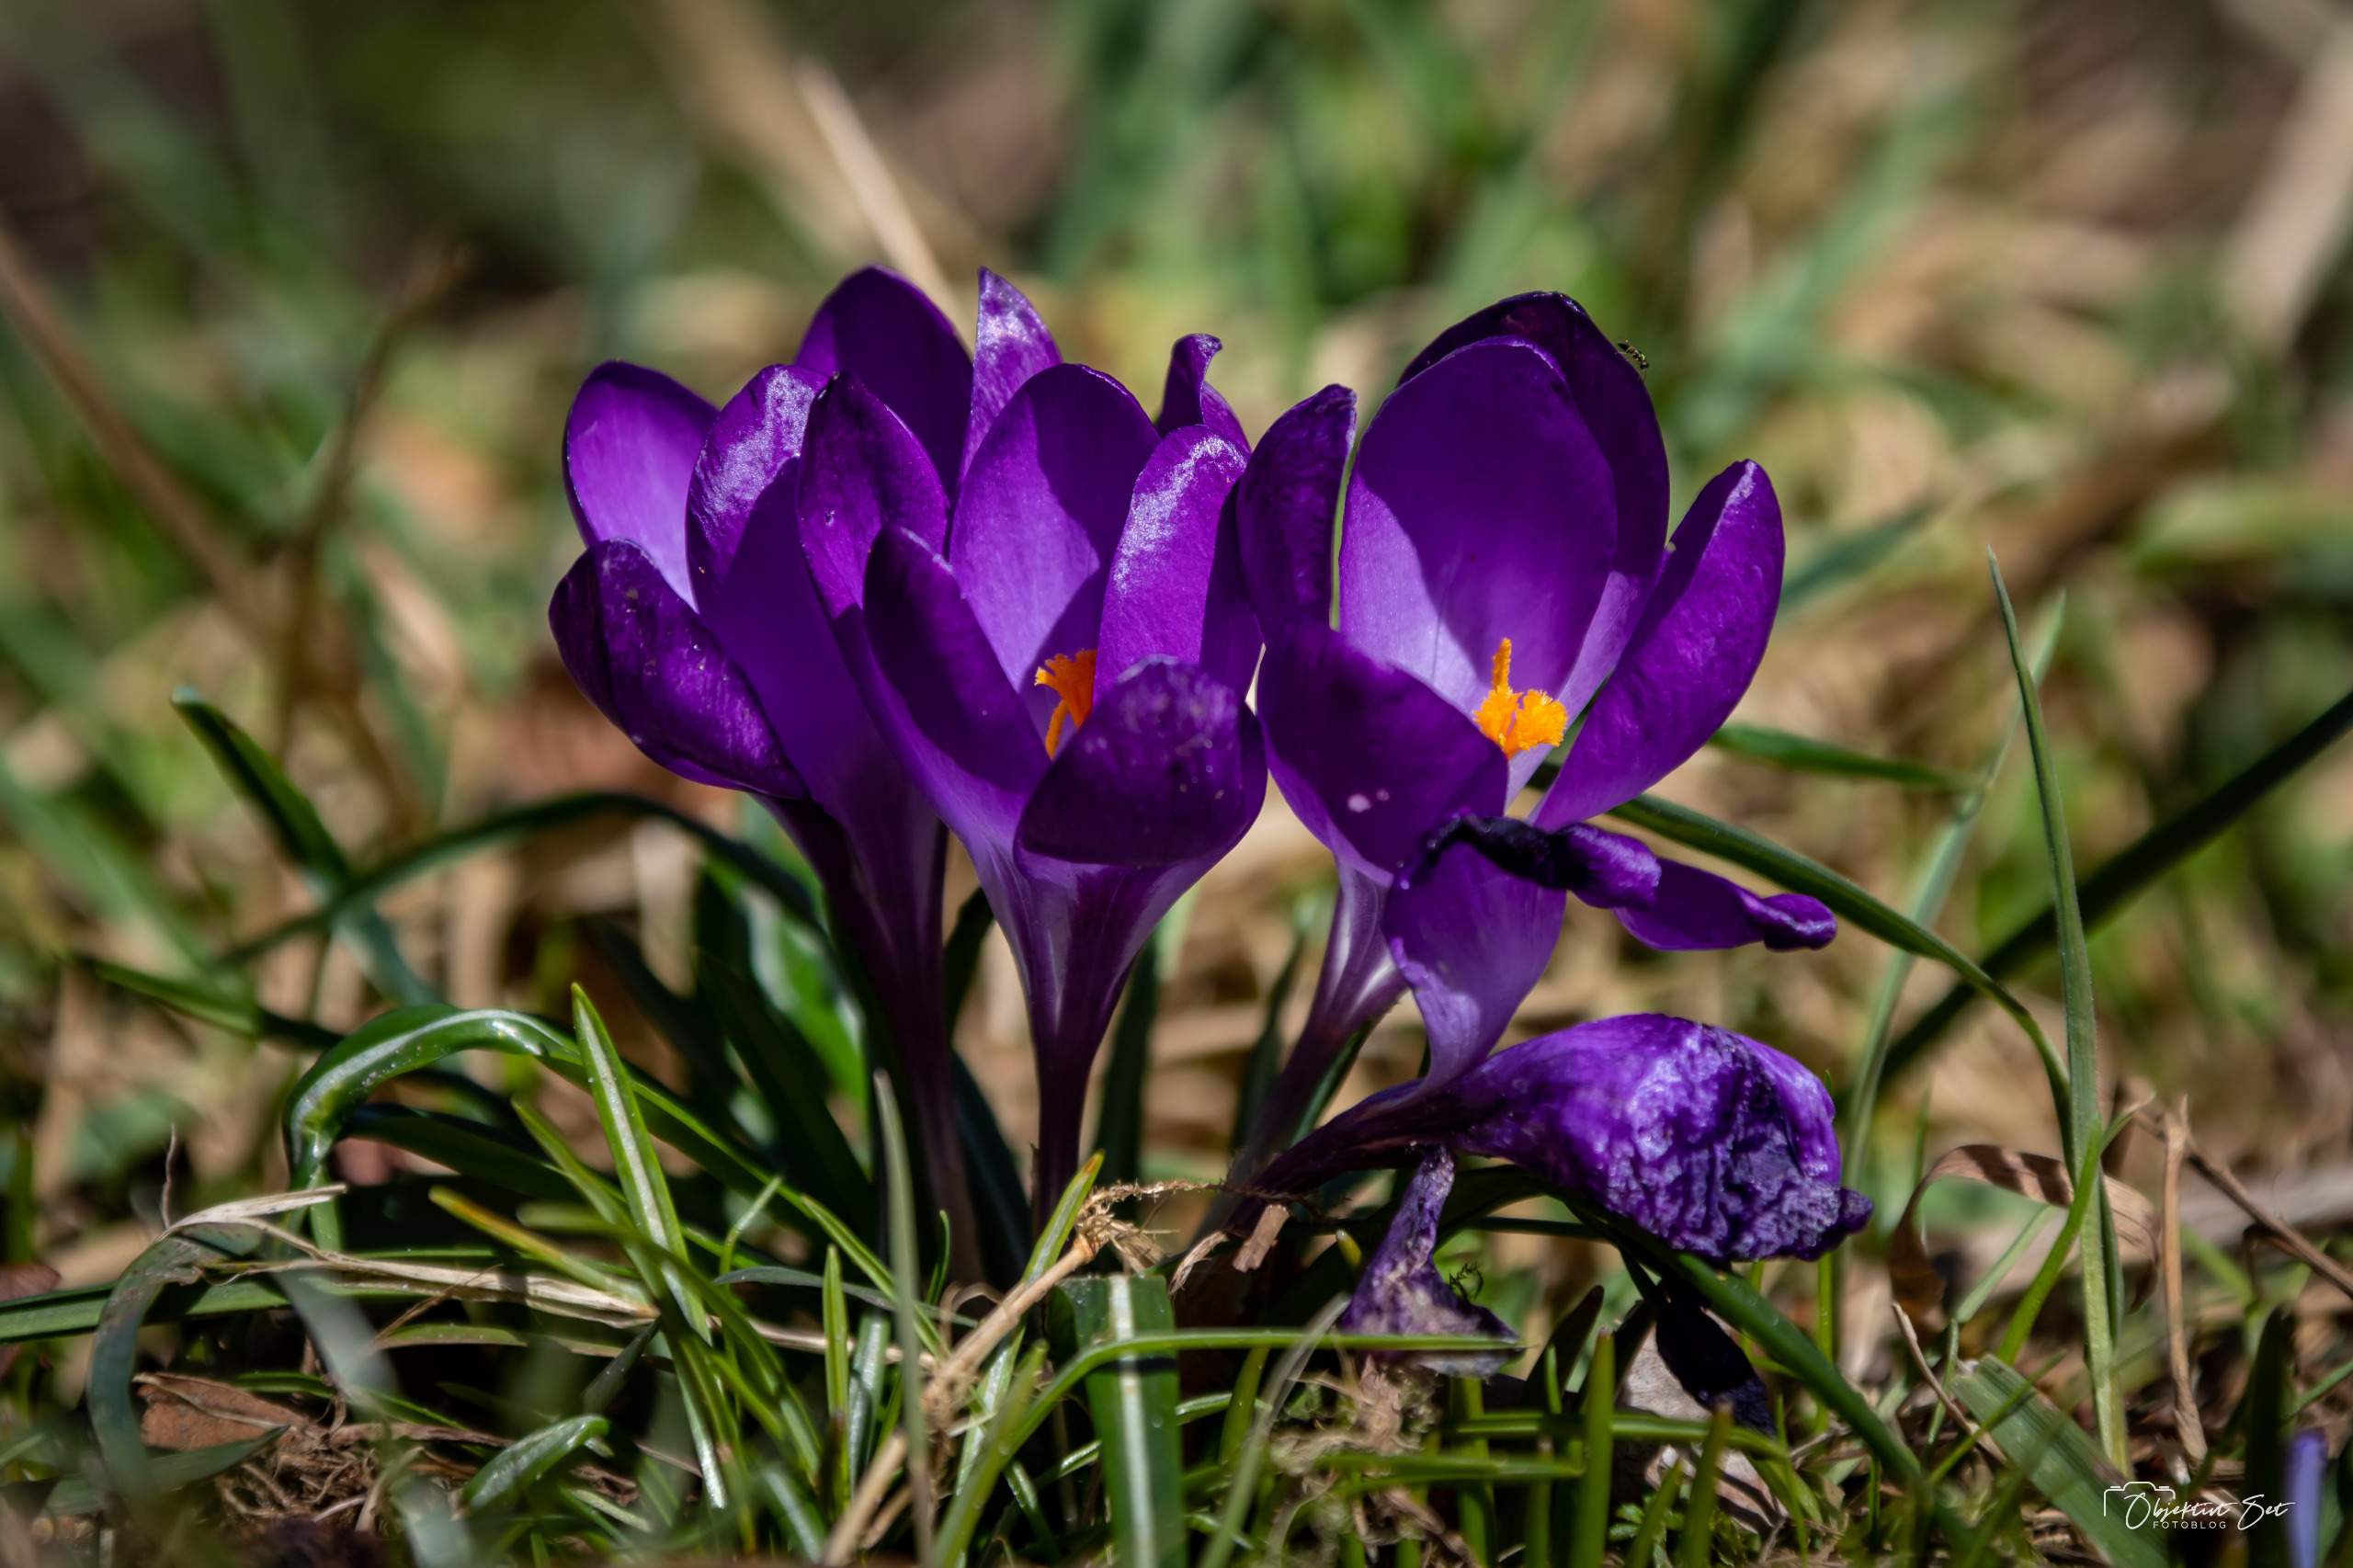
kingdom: Plantae
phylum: Tracheophyta
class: Liliopsida
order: Asparagales
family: Iridaceae
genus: Crocus
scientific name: Crocus vernus
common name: Vår-krokus
